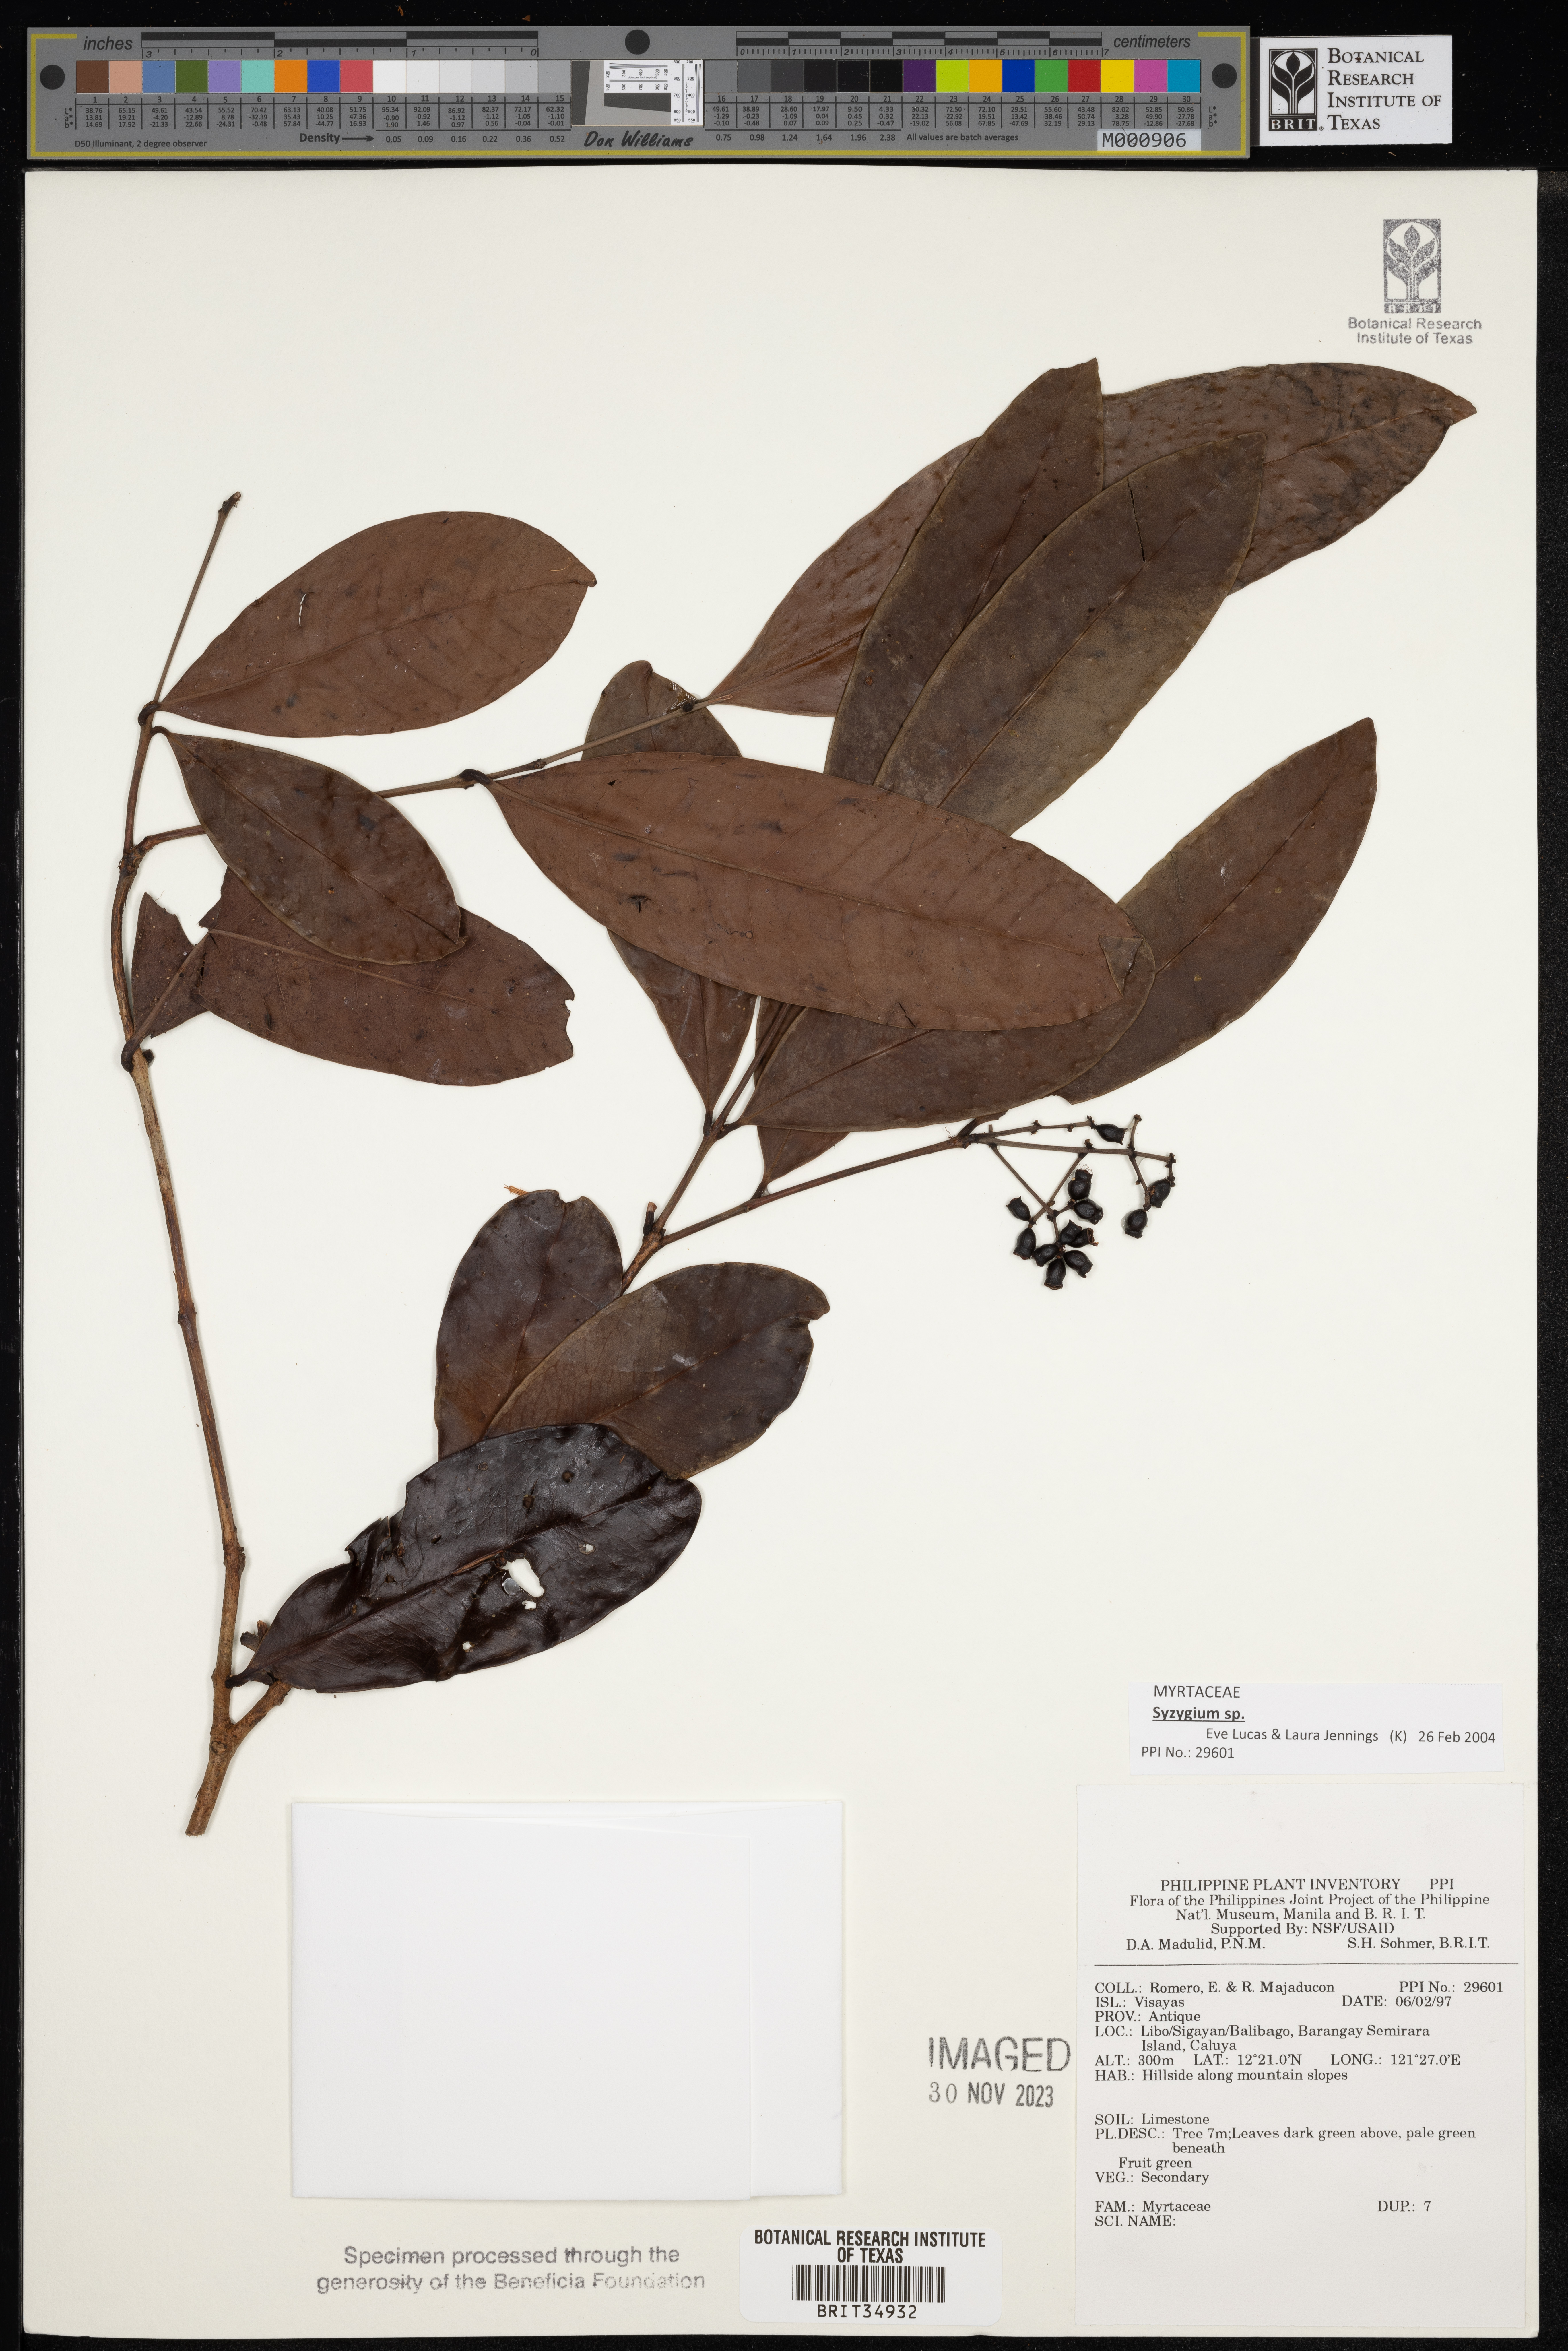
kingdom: Plantae
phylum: Tracheophyta
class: Magnoliopsida
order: Myrtales
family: Myrtaceae
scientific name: Myrtaceae
